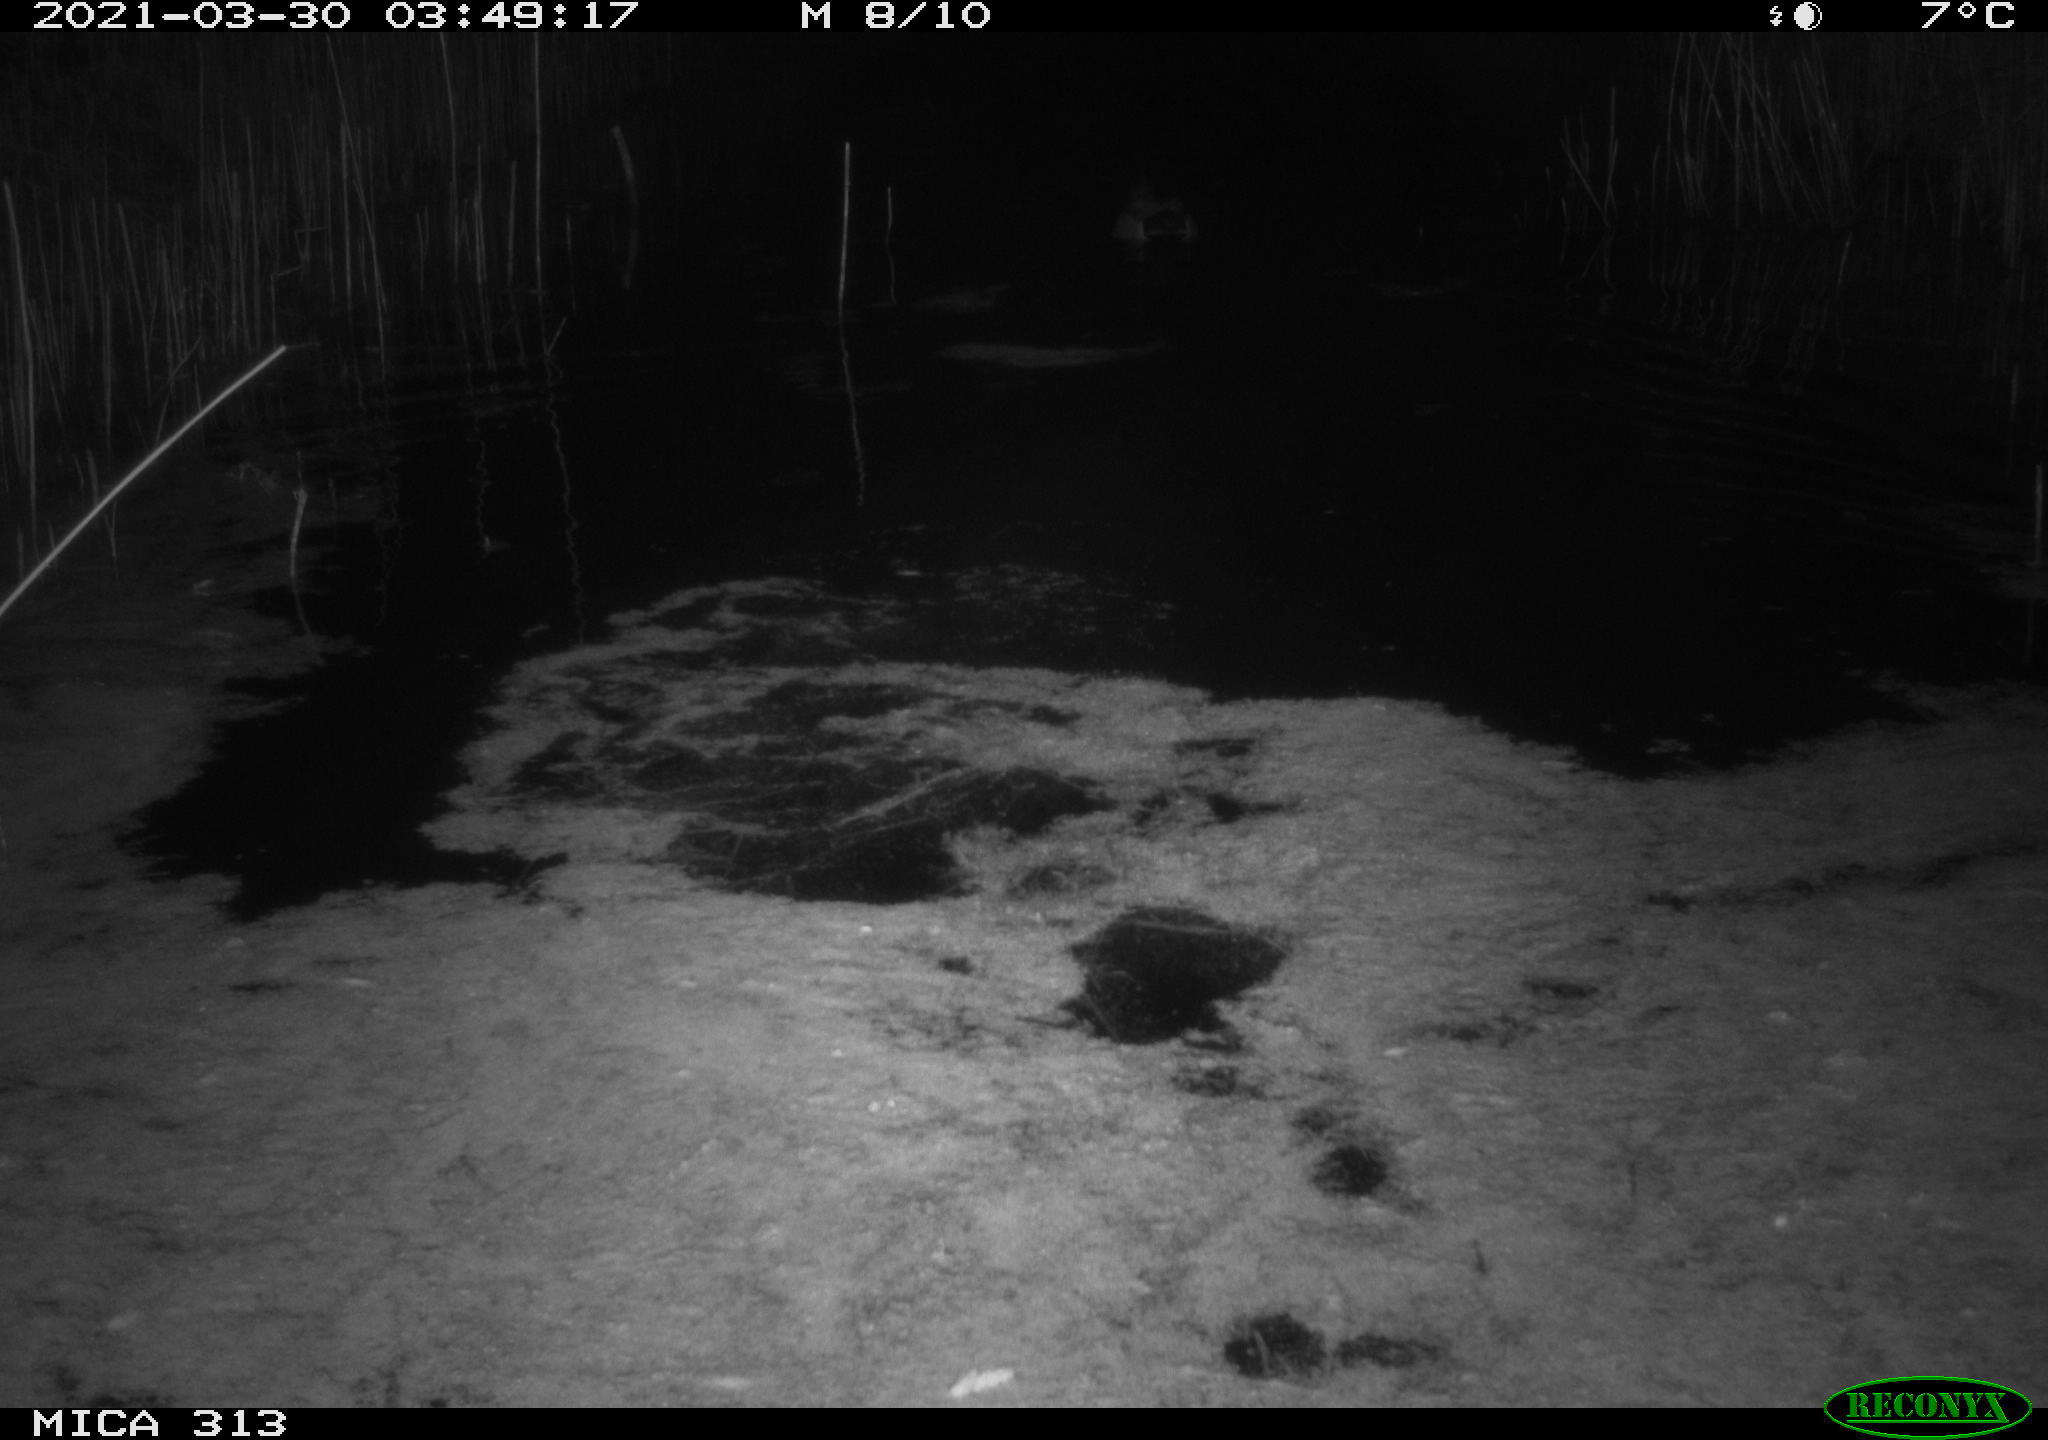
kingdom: Animalia
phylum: Chordata
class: Aves
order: Anseriformes
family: Anatidae
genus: Anas
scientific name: Anas platyrhynchos
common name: Mallard
